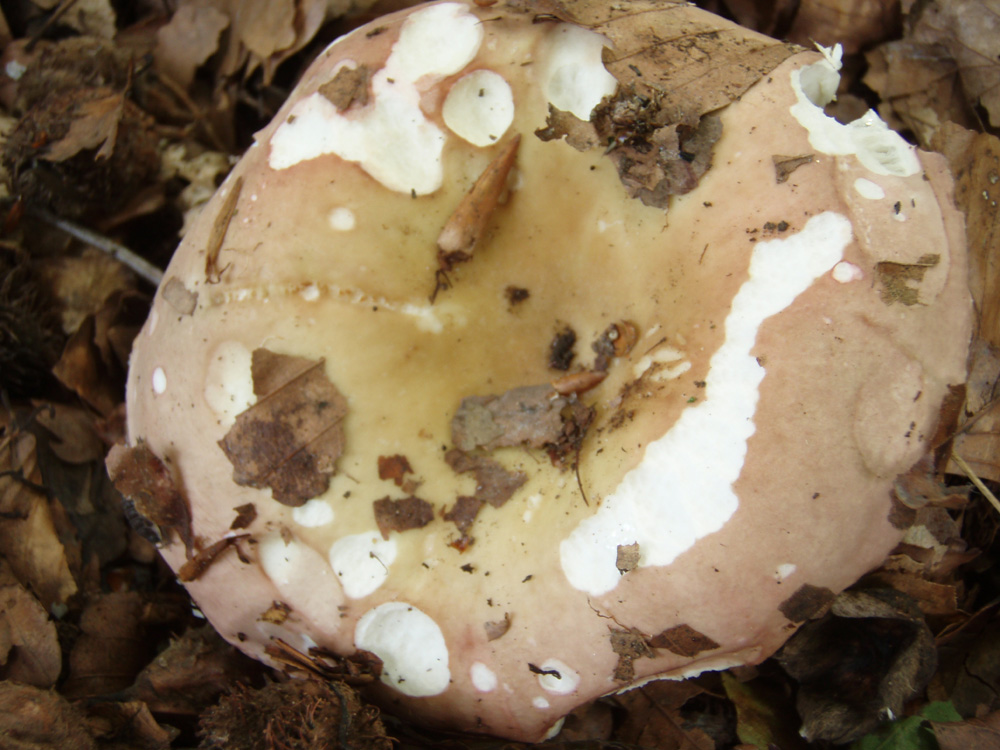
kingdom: Fungi
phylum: Basidiomycota
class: Agaricomycetes
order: Russulales
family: Russulaceae
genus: Russula
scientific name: Russula veternosa
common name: blødkødet skørhat
